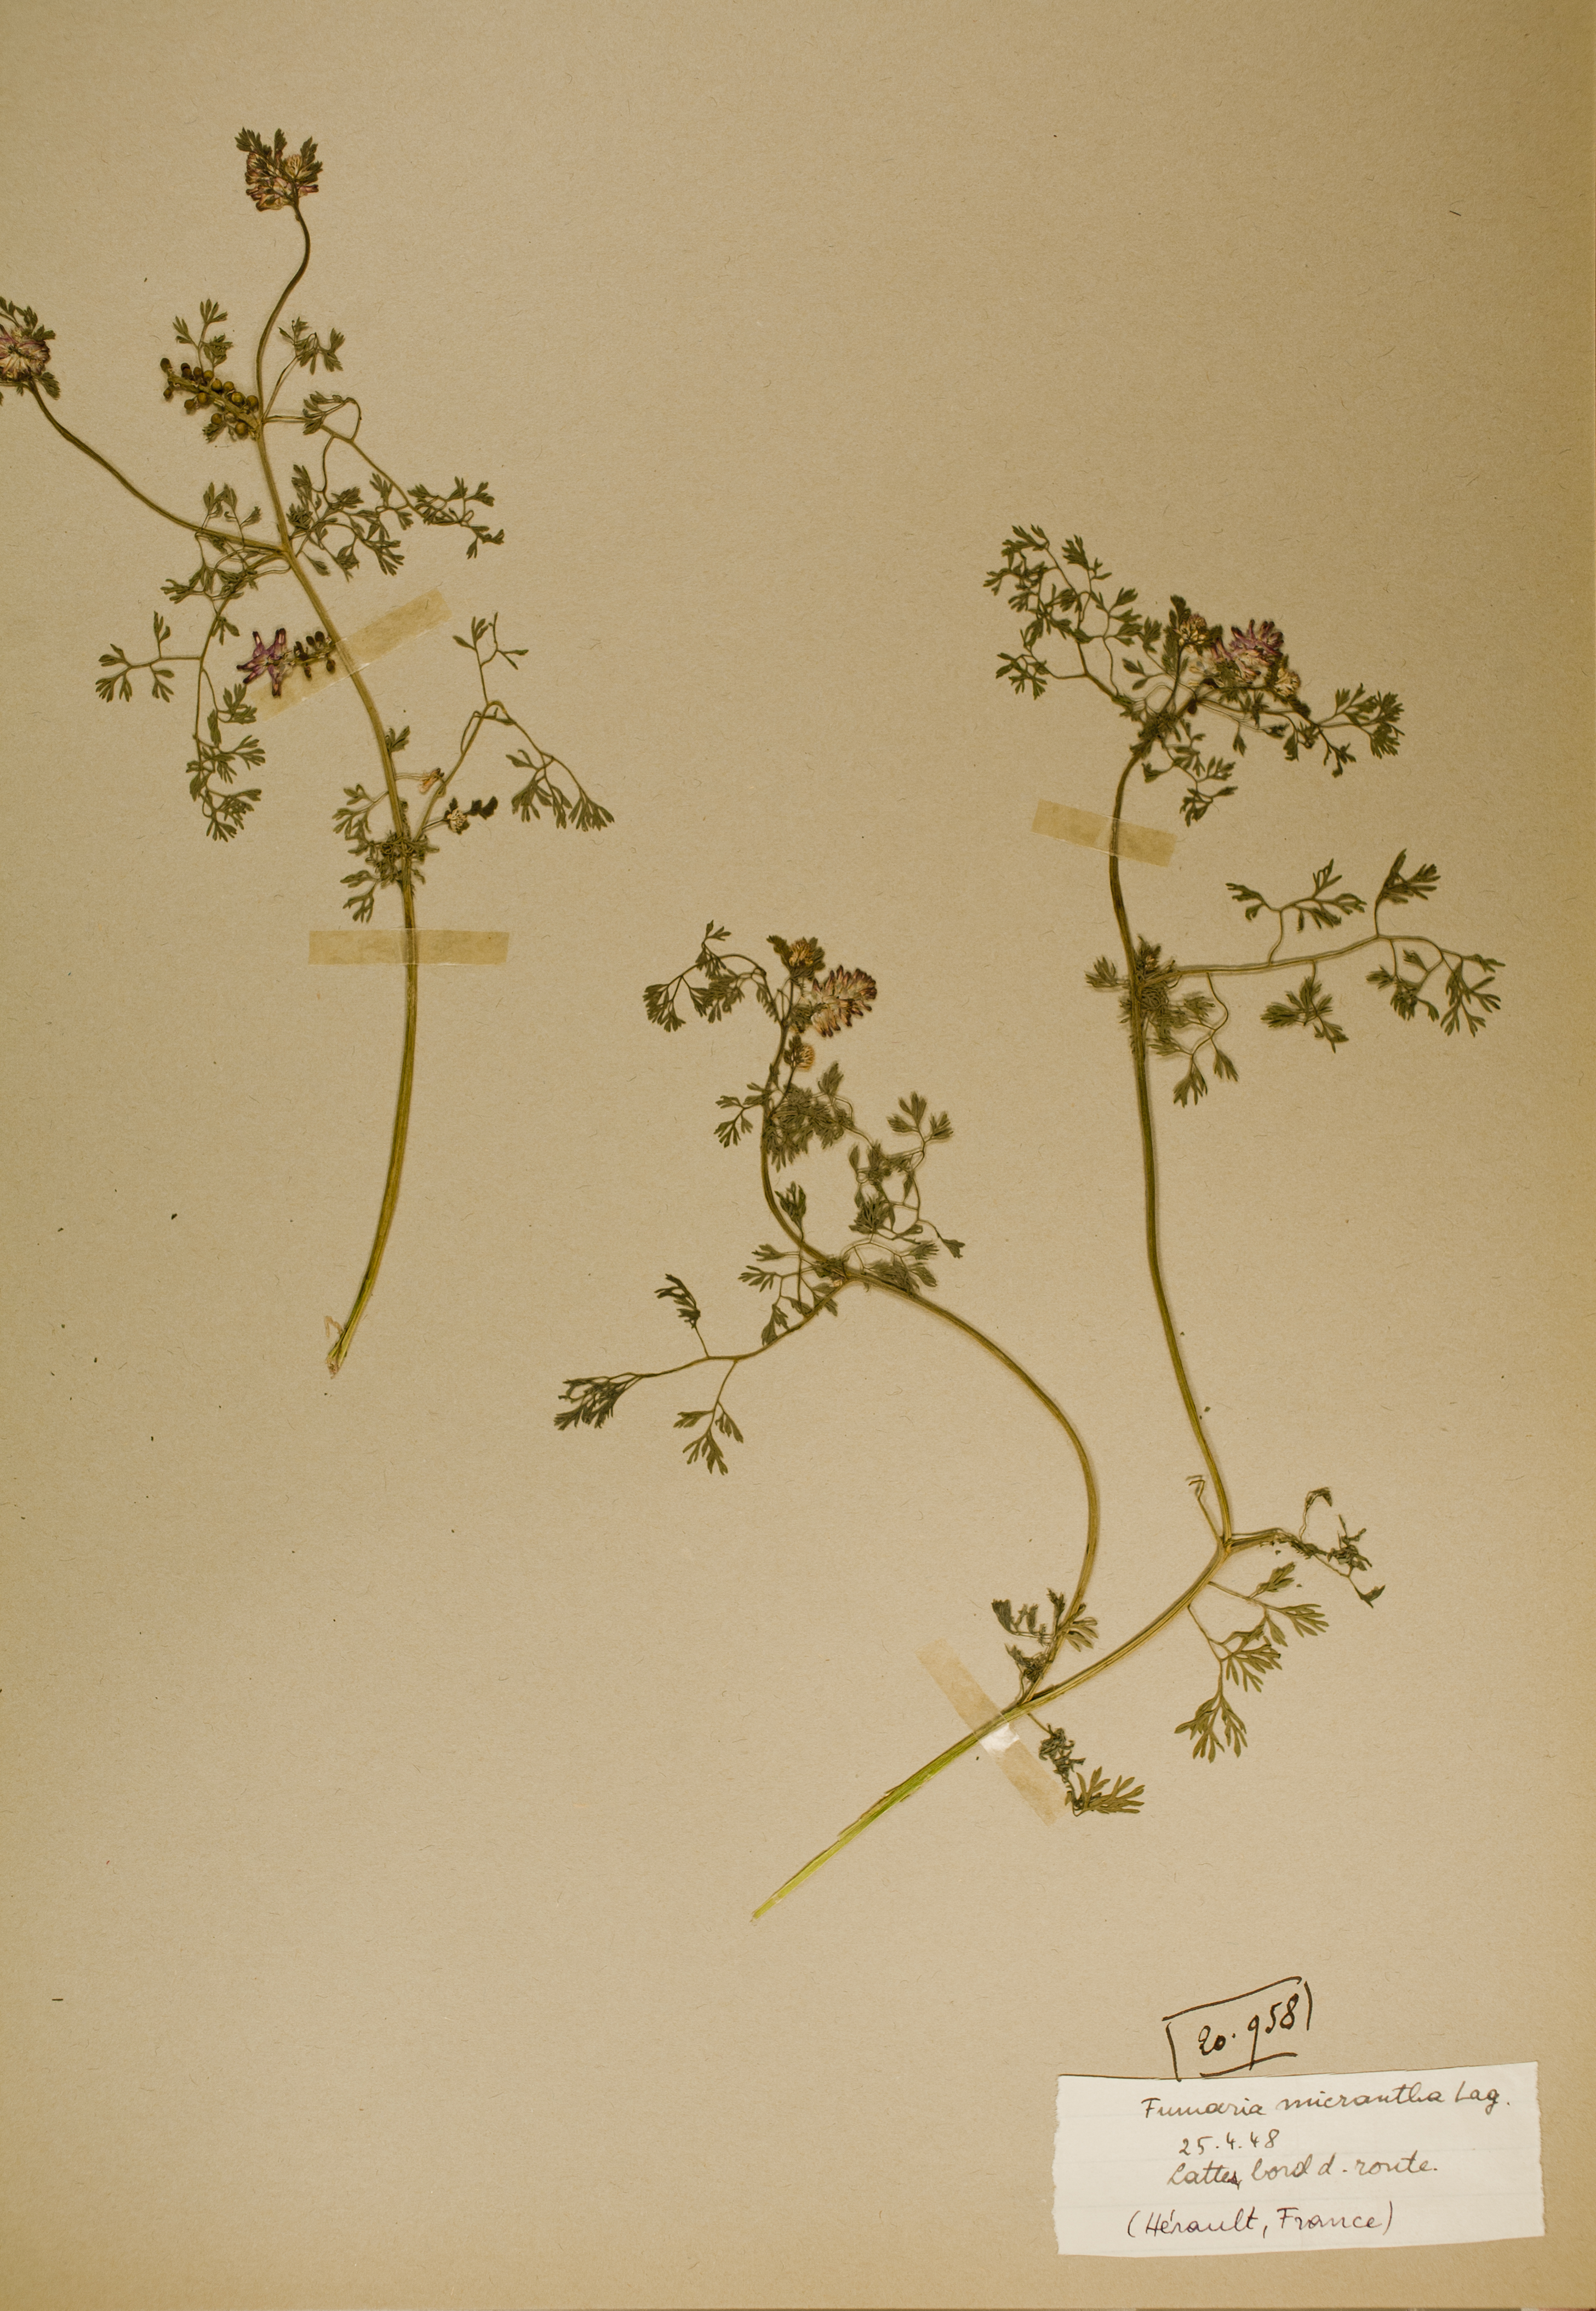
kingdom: Plantae
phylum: Tracheophyta
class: Magnoliopsida
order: Ranunculales
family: Papaveraceae
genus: Fumaria
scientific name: Fumaria densiflora
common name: Dense-flowered fumitory
